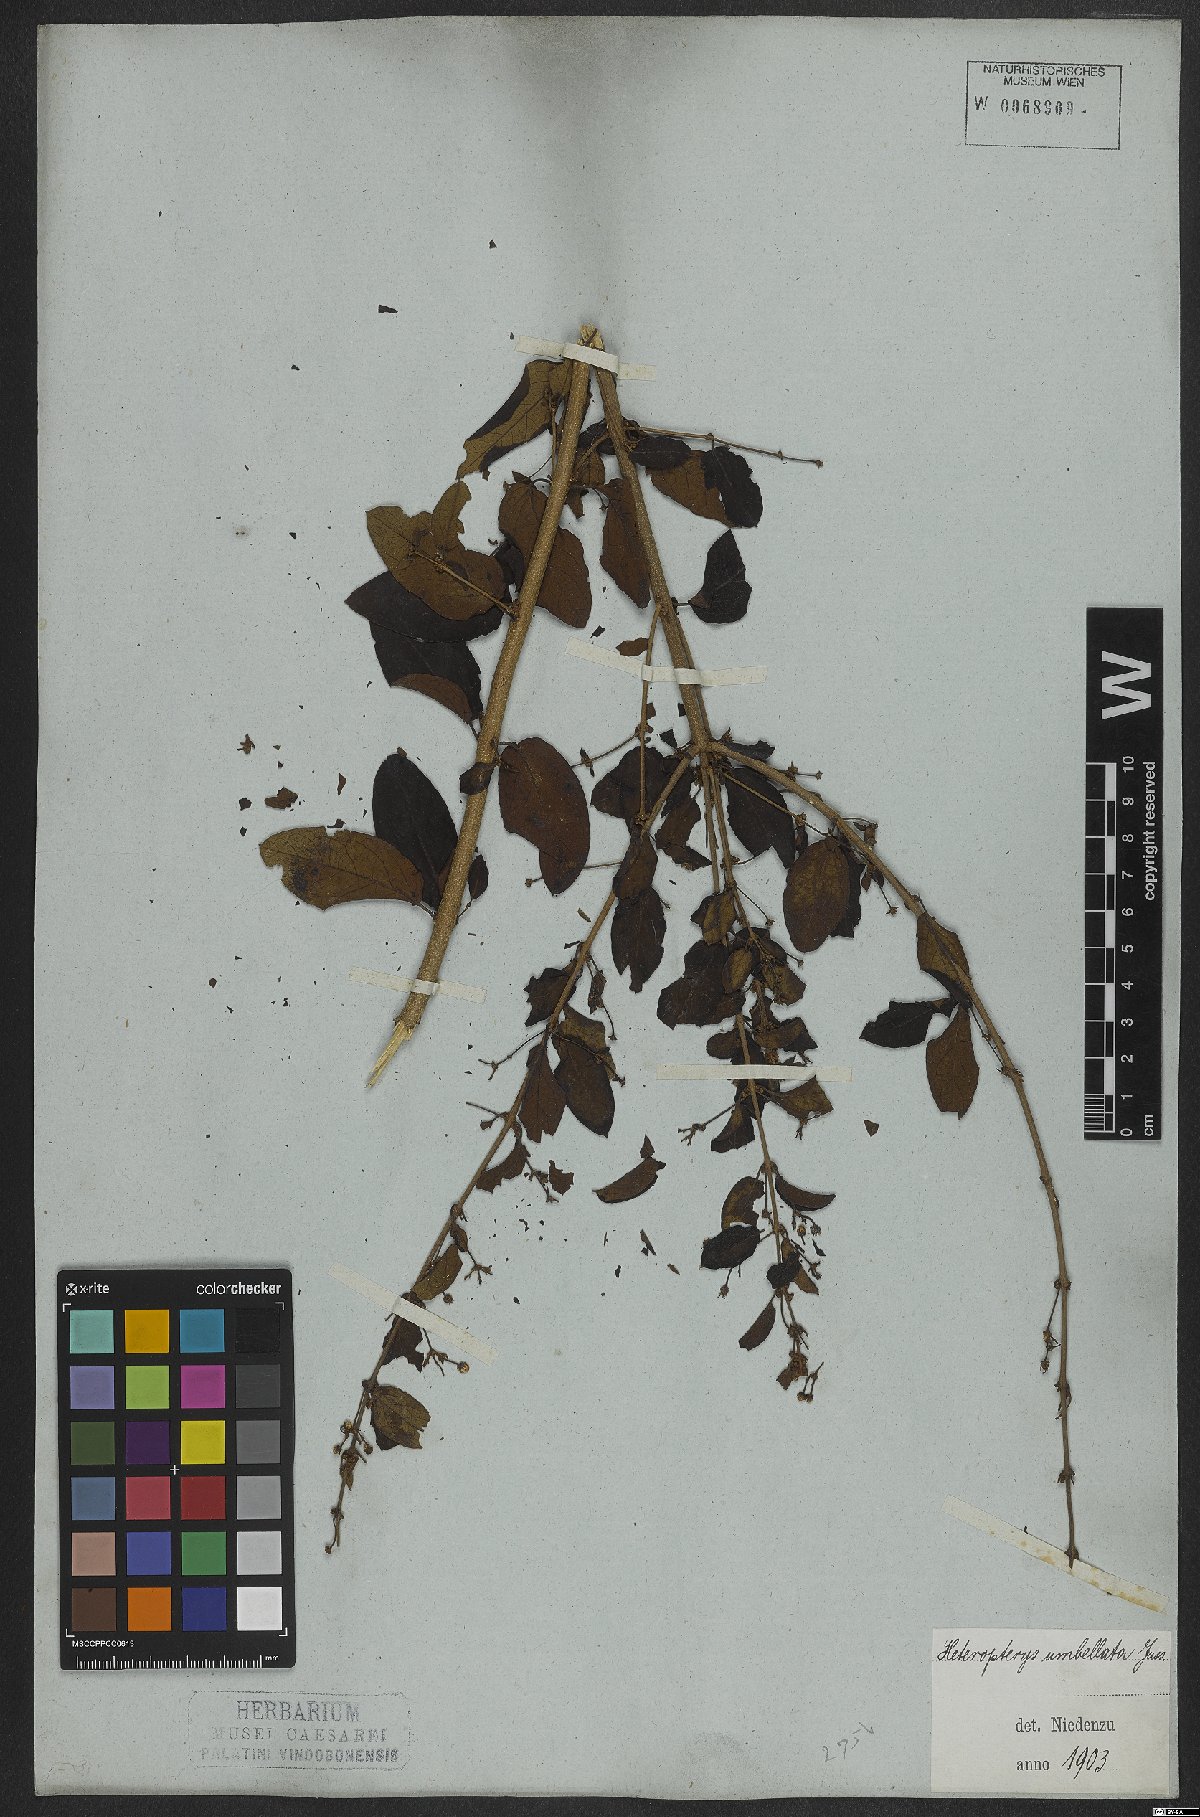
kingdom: Plantae
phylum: Tracheophyta
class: Magnoliopsida
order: Malpighiales
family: Malpighiaceae
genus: Heteropterys
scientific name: Heteropterys umbellata
